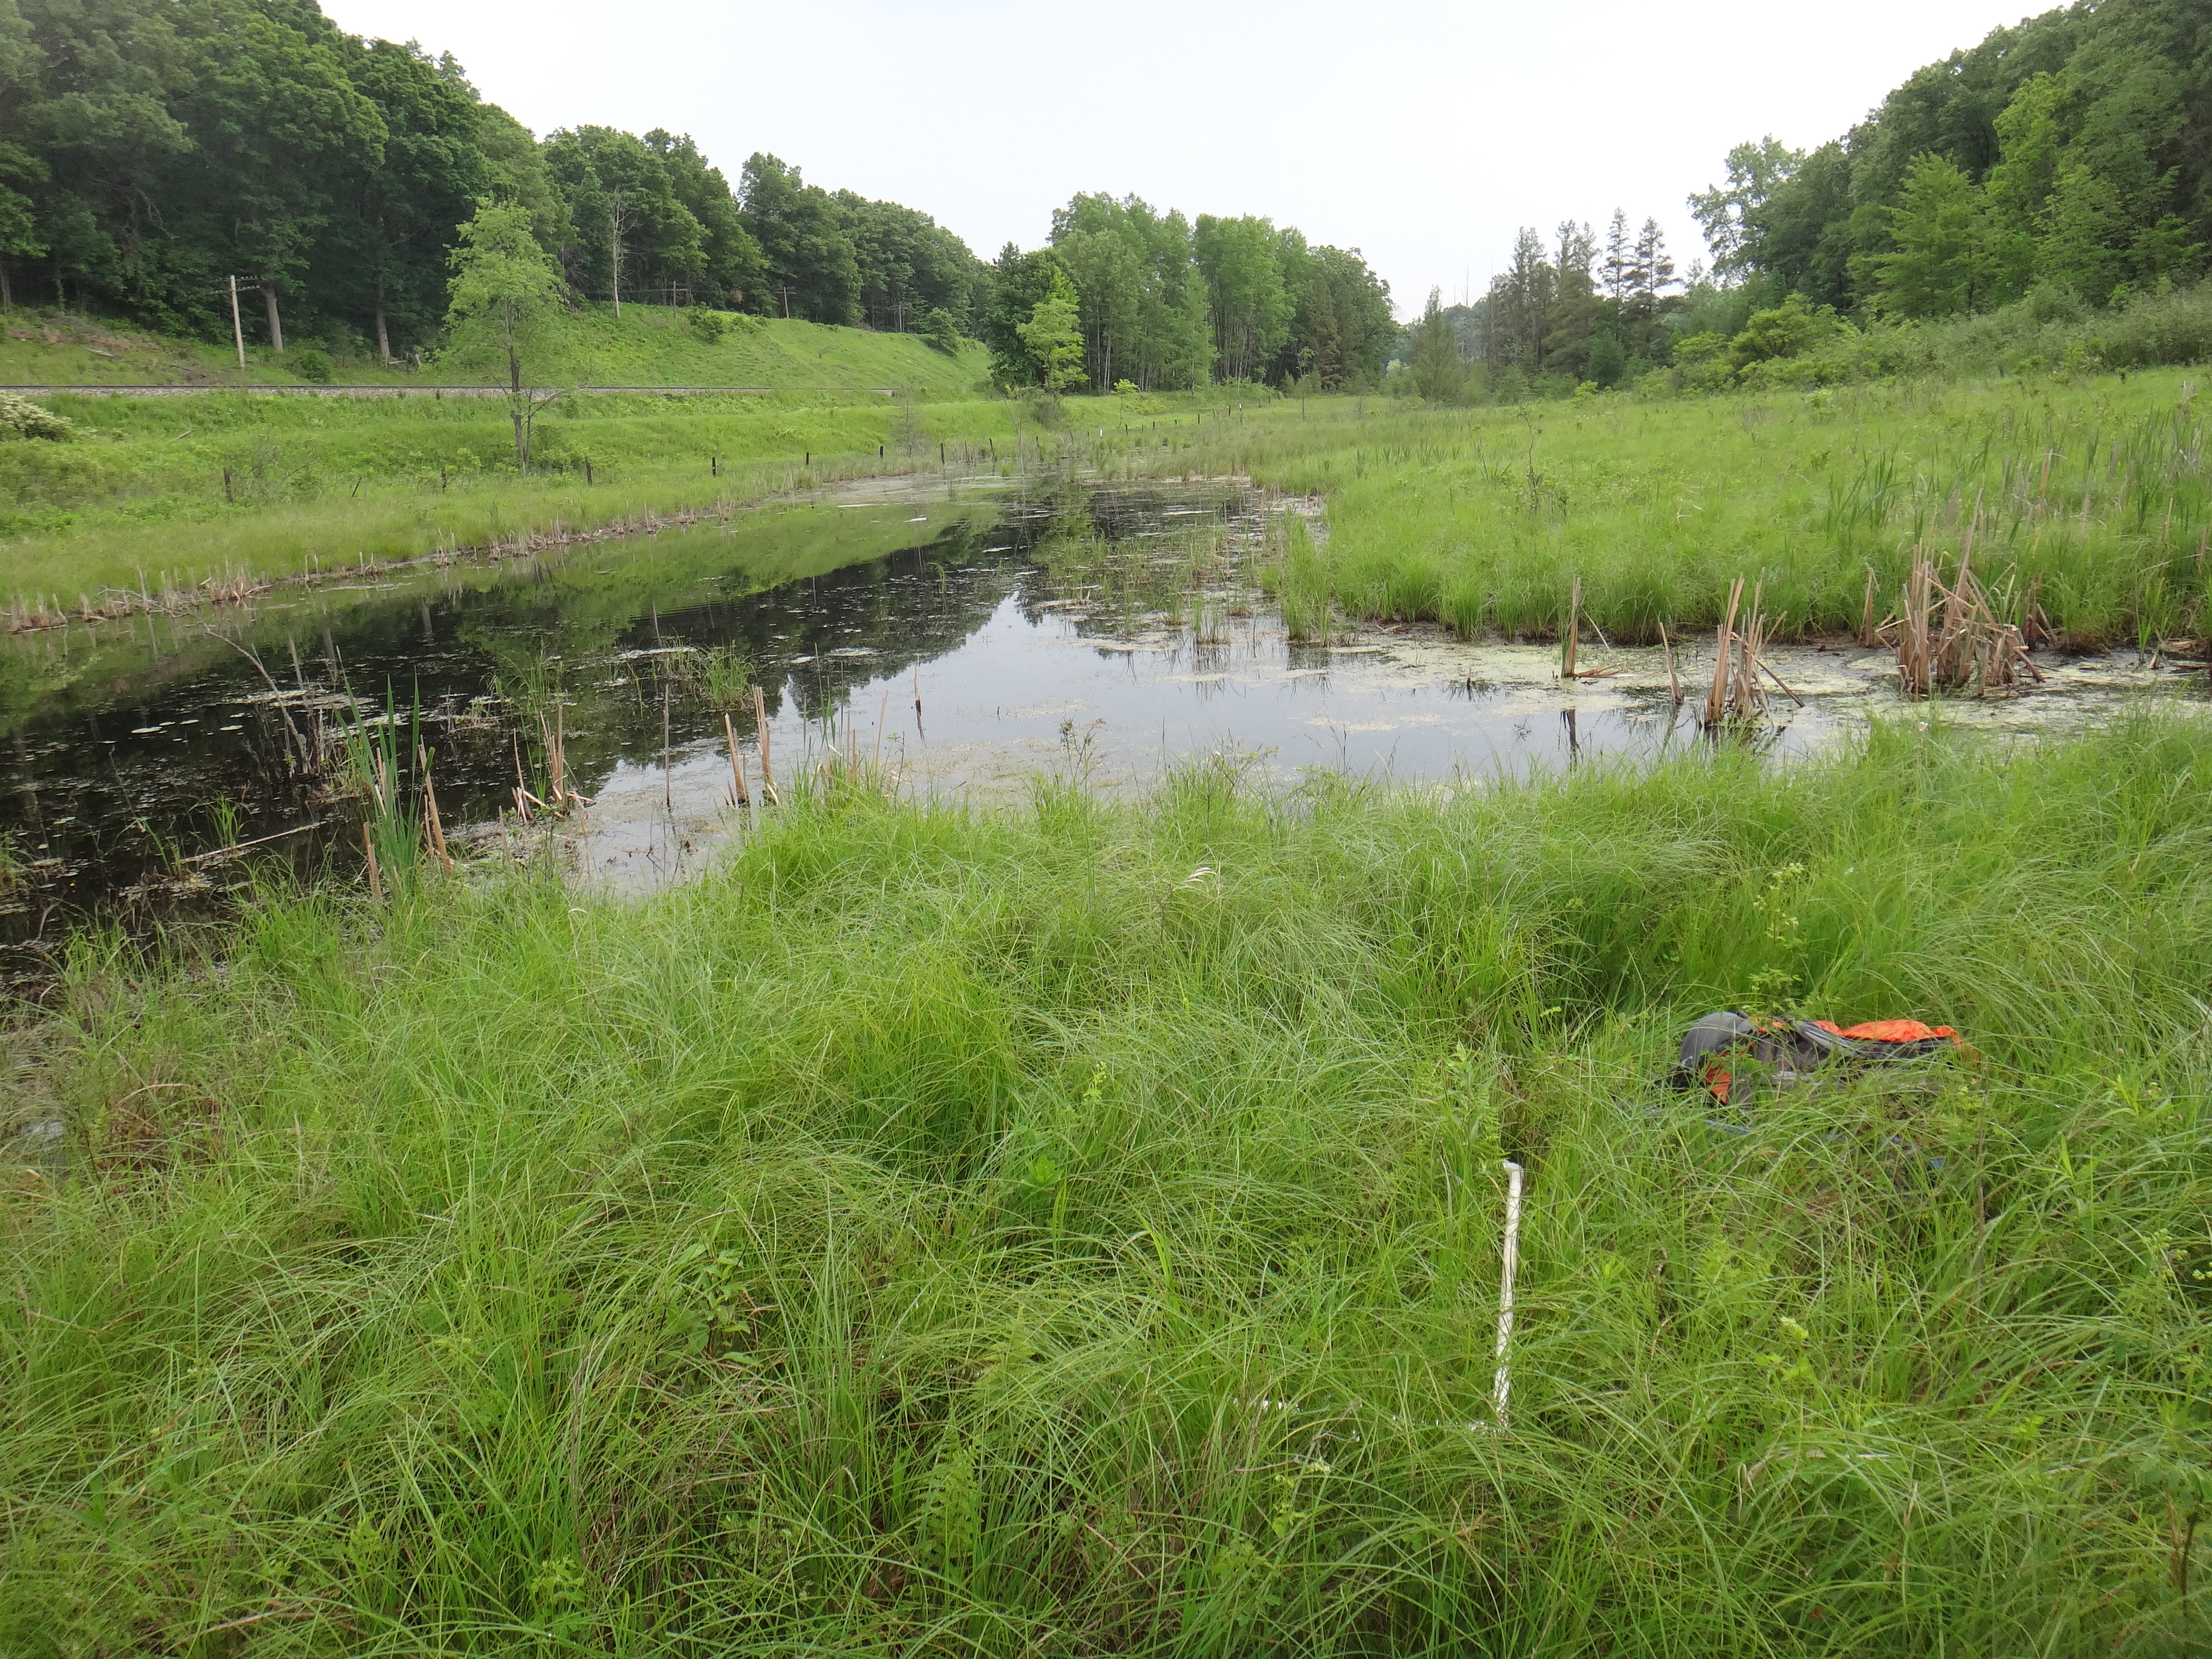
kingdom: Plantae
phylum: Tracheophyta
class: Polypodiopsida
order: Polypodiales
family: Thelypteridaceae
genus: Thelypteris
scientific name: Thelypteris palustris
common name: Marsh fern
